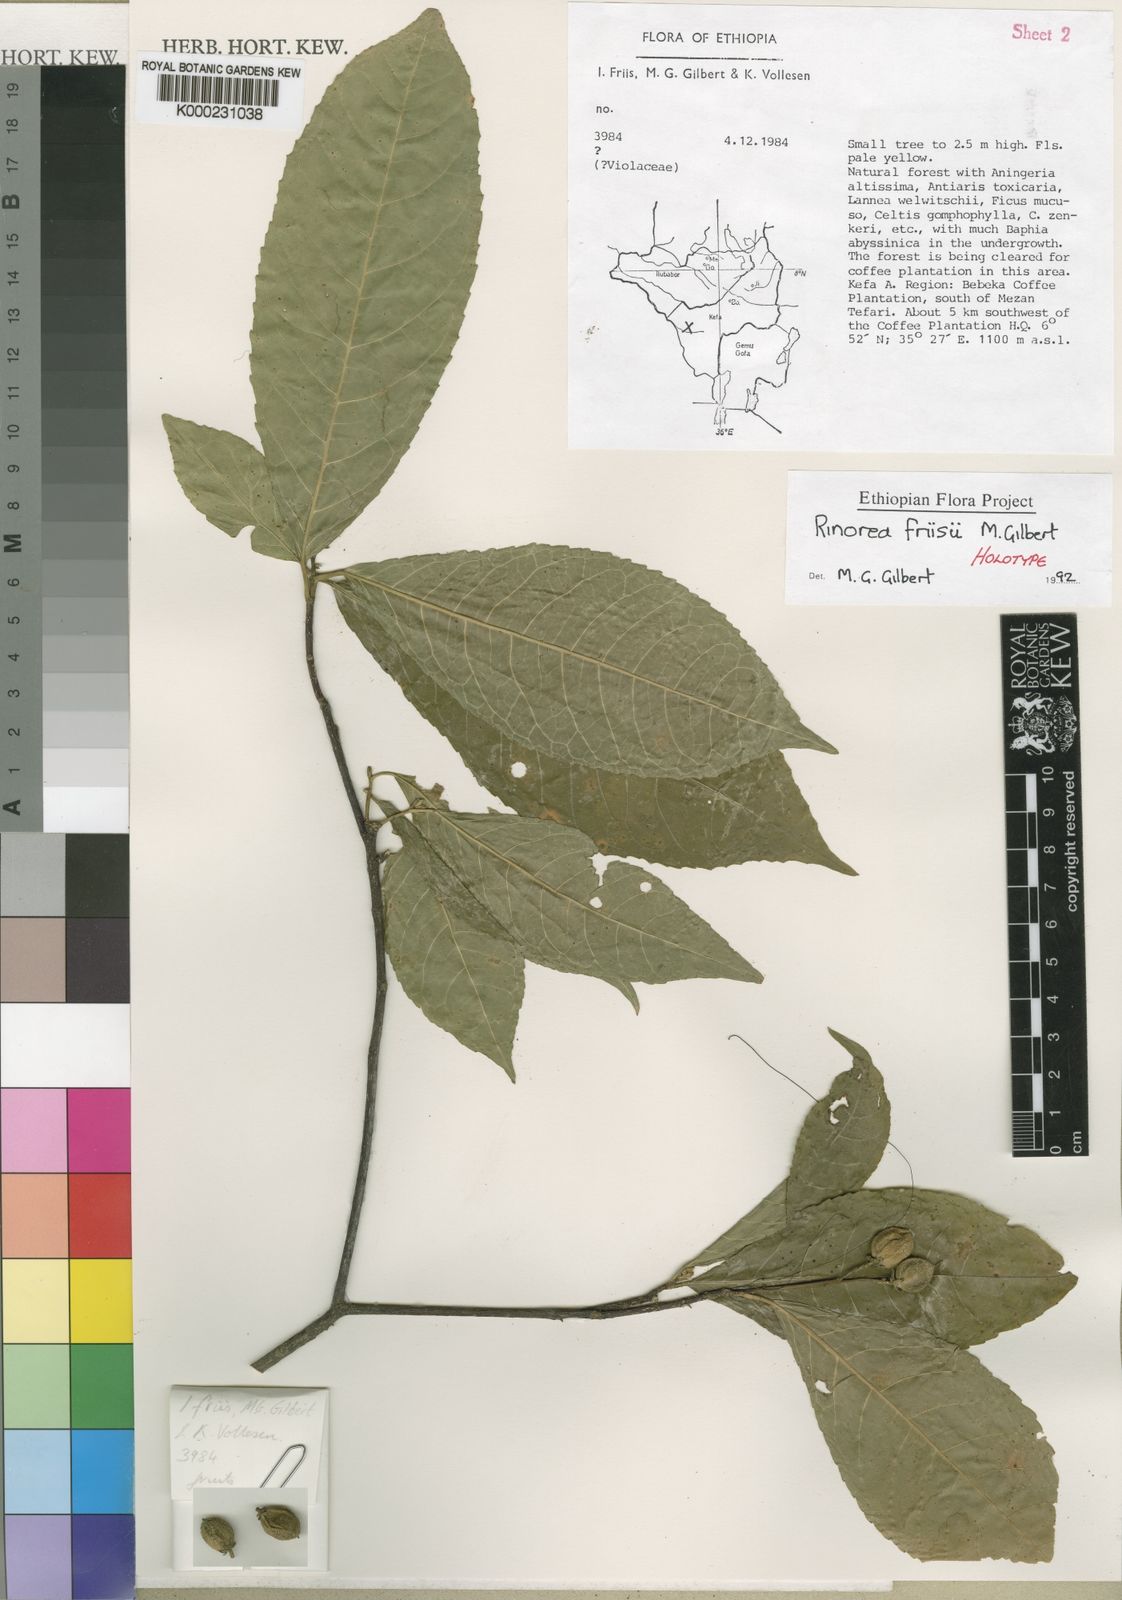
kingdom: Plantae
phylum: Tracheophyta
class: Magnoliopsida
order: Malpighiales
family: Violaceae
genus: Rinorea
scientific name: Rinorea friisii
